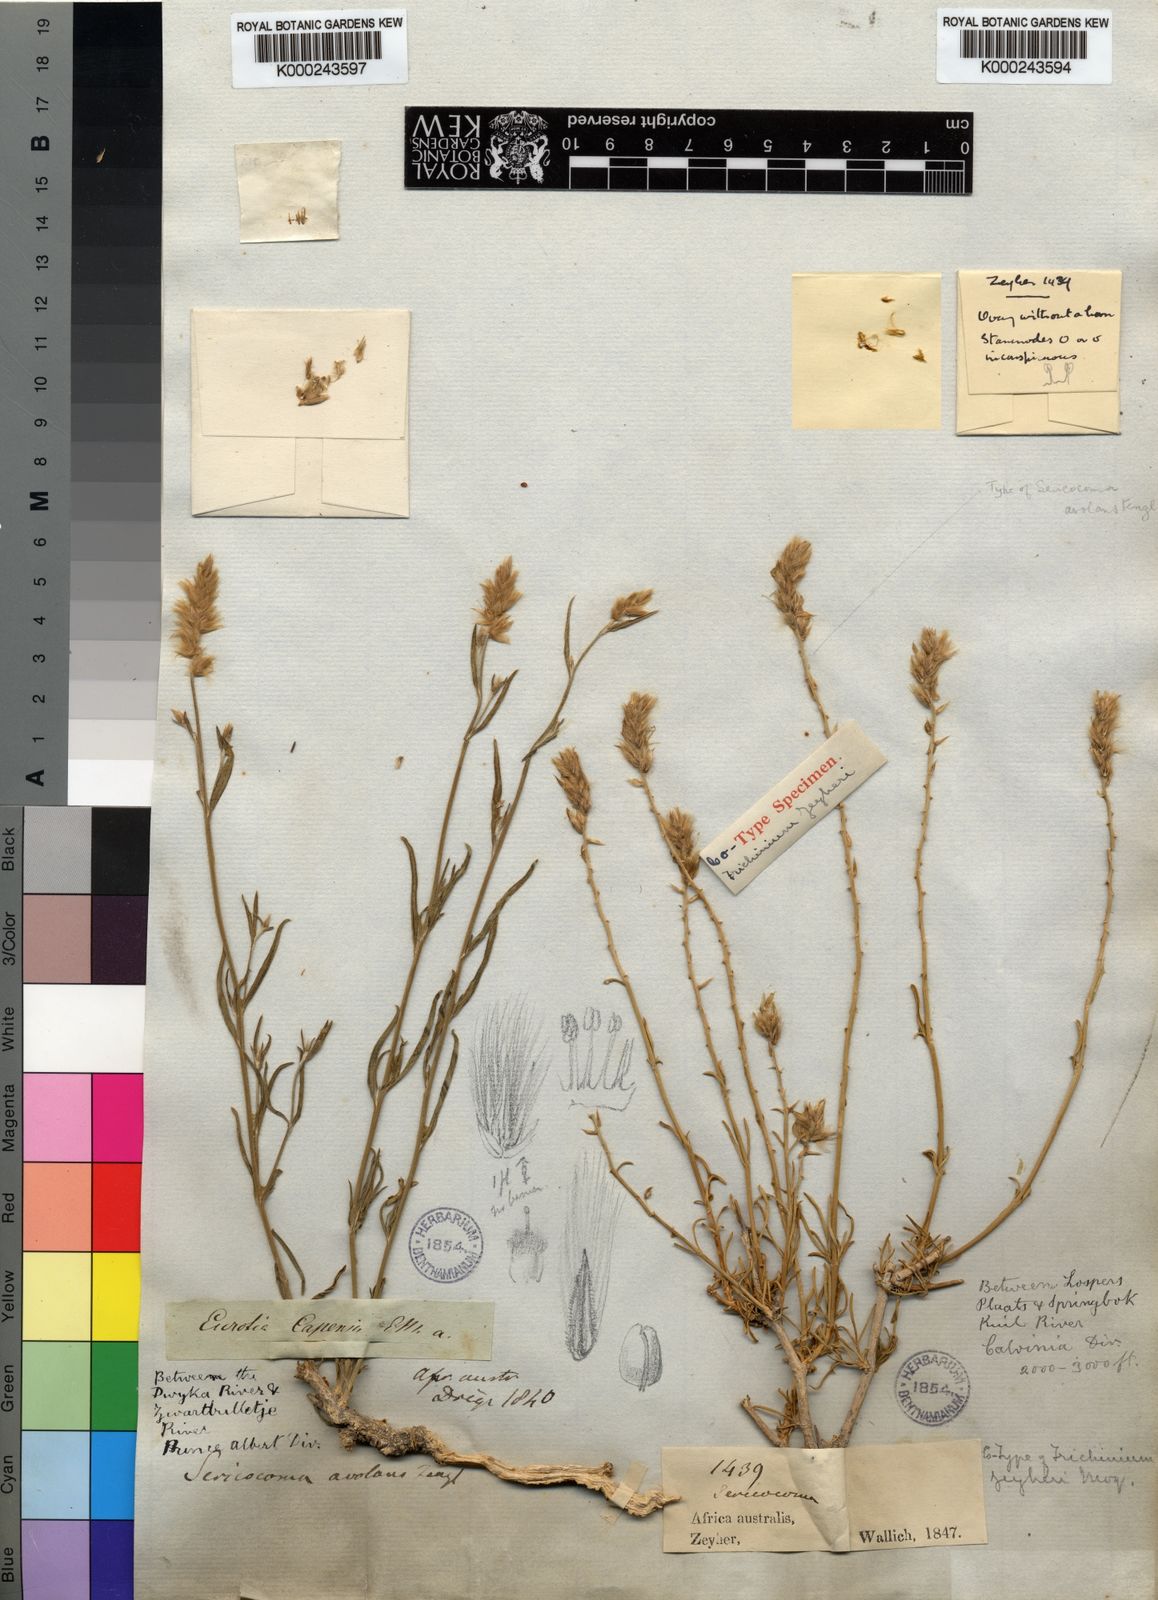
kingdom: Plantae
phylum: Tracheophyta
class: Magnoliopsida
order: Caryophyllales
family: Amaranthaceae
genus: Sericocoma
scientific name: Sericocoma avolans
